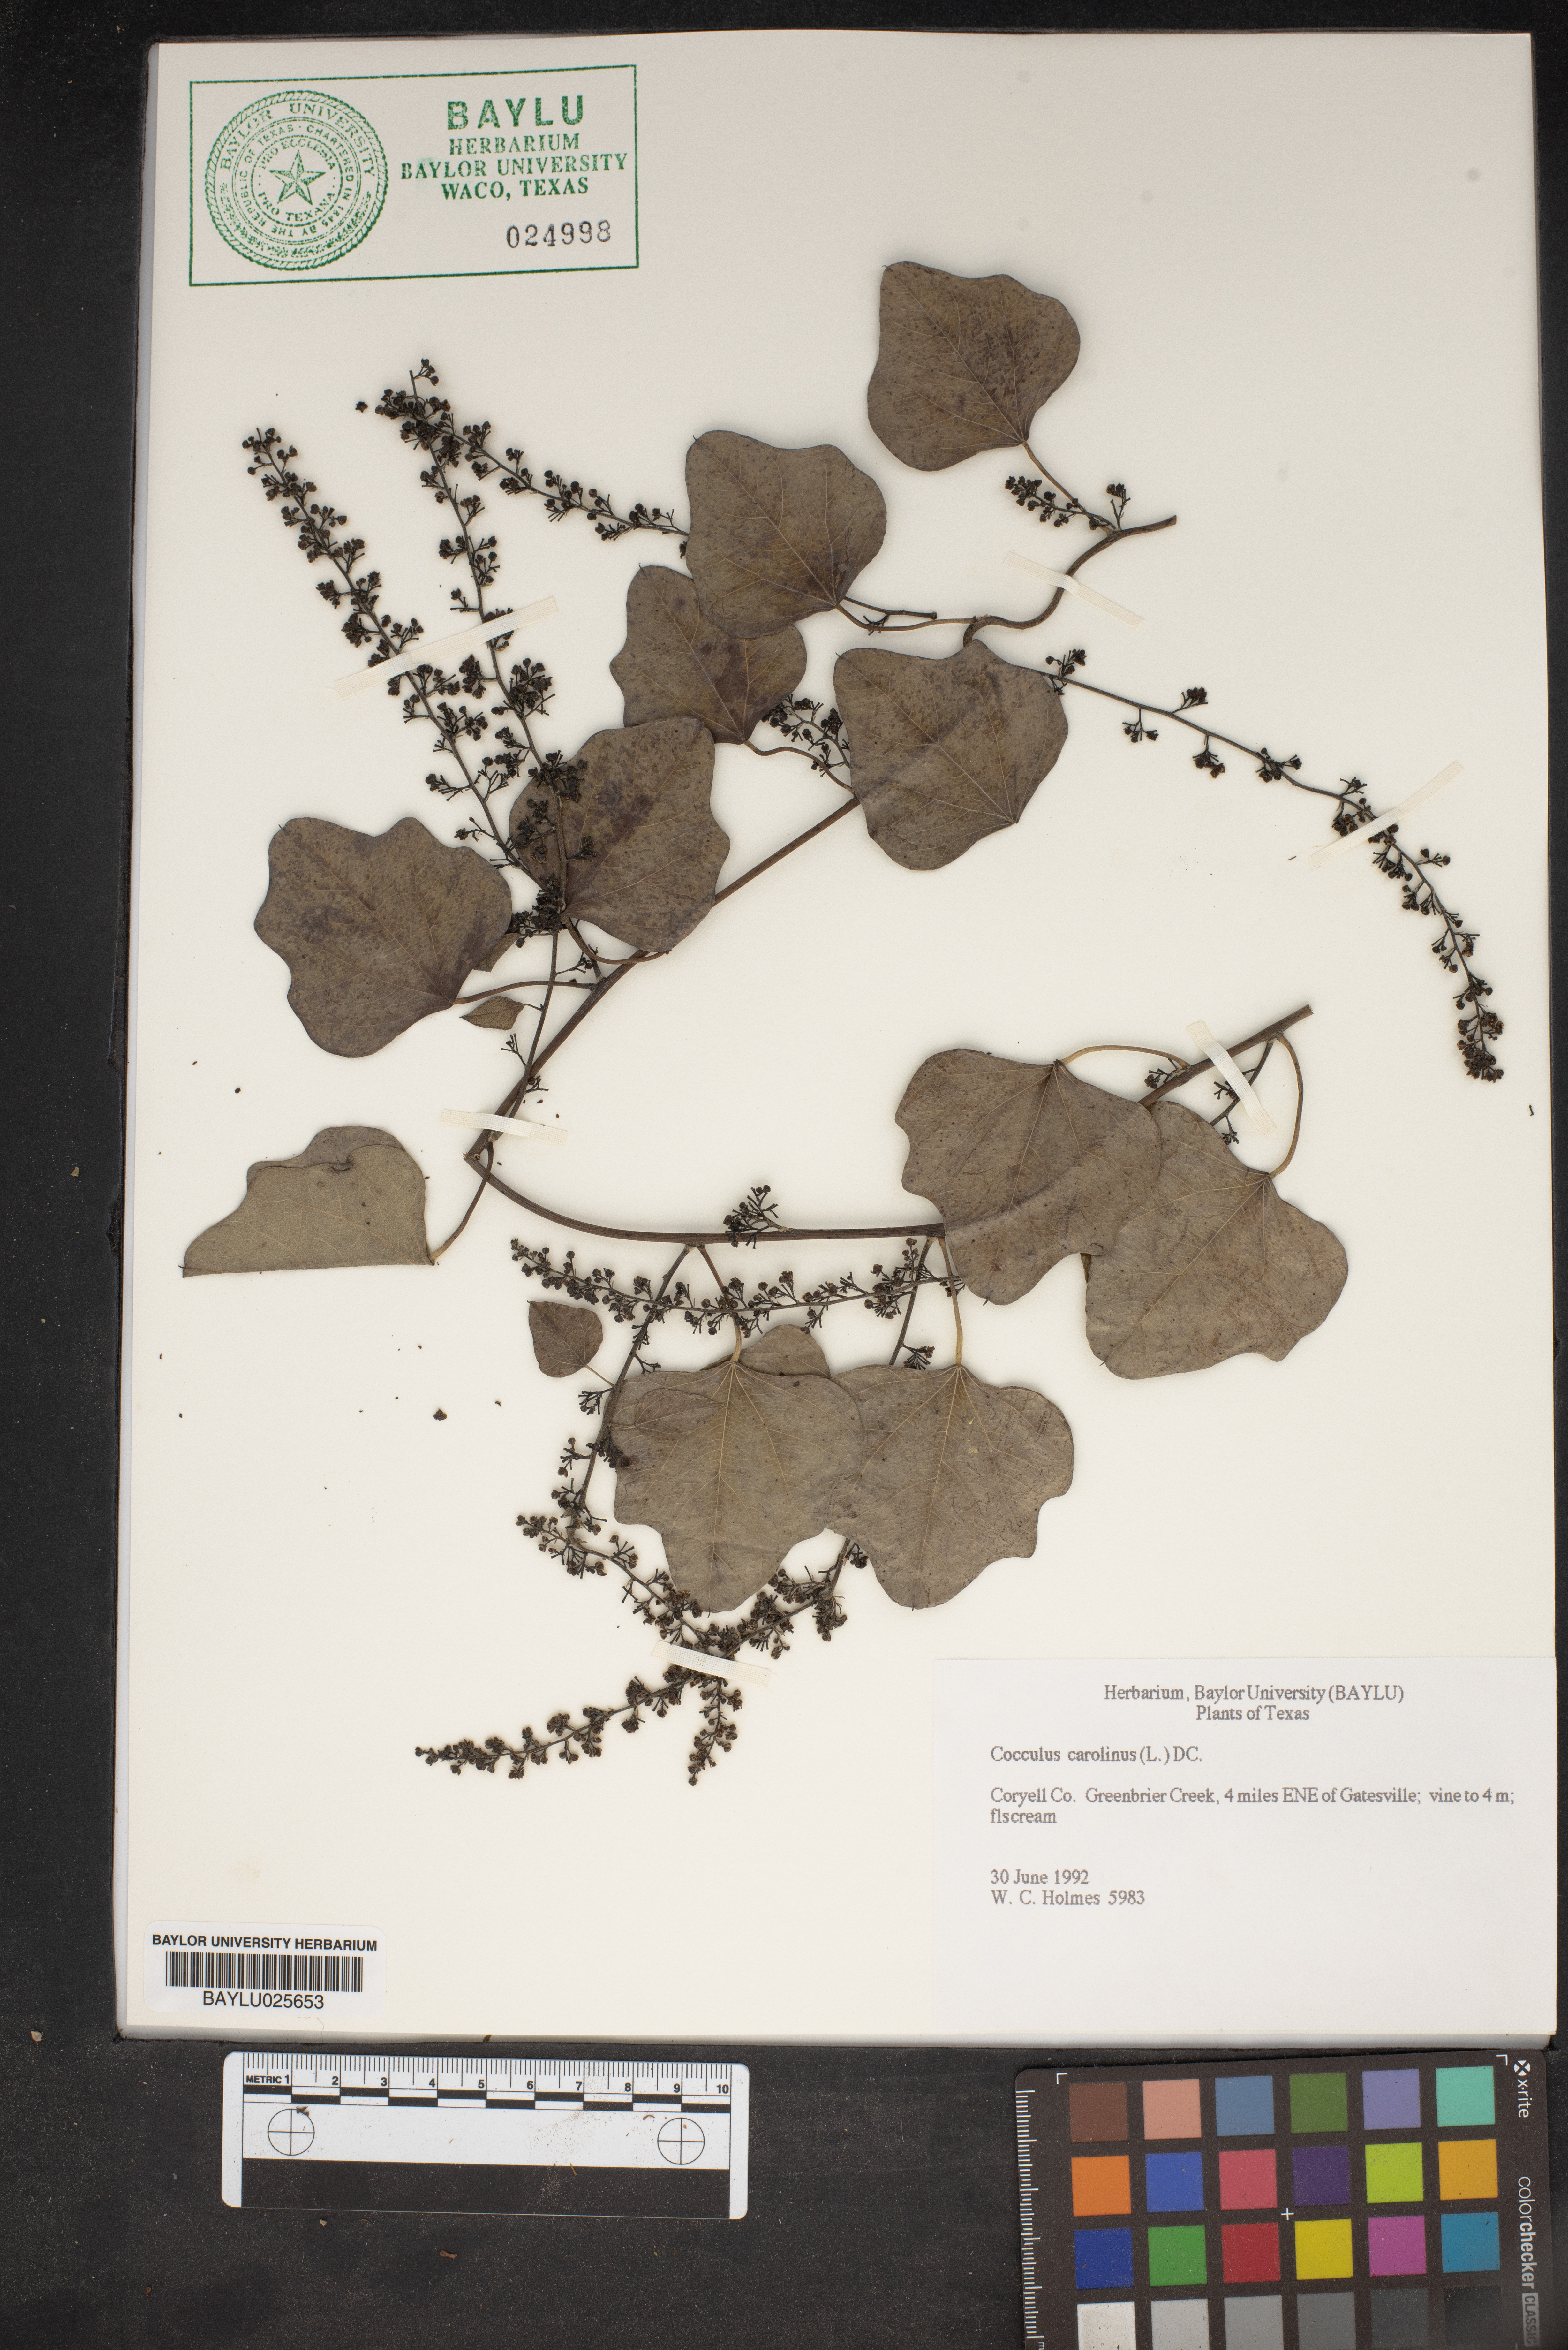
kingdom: Plantae
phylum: Tracheophyta
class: Magnoliopsida
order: Ranunculales
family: Menispermaceae
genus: Cocculus
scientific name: Cocculus carolinus
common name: Carolina moonseed
